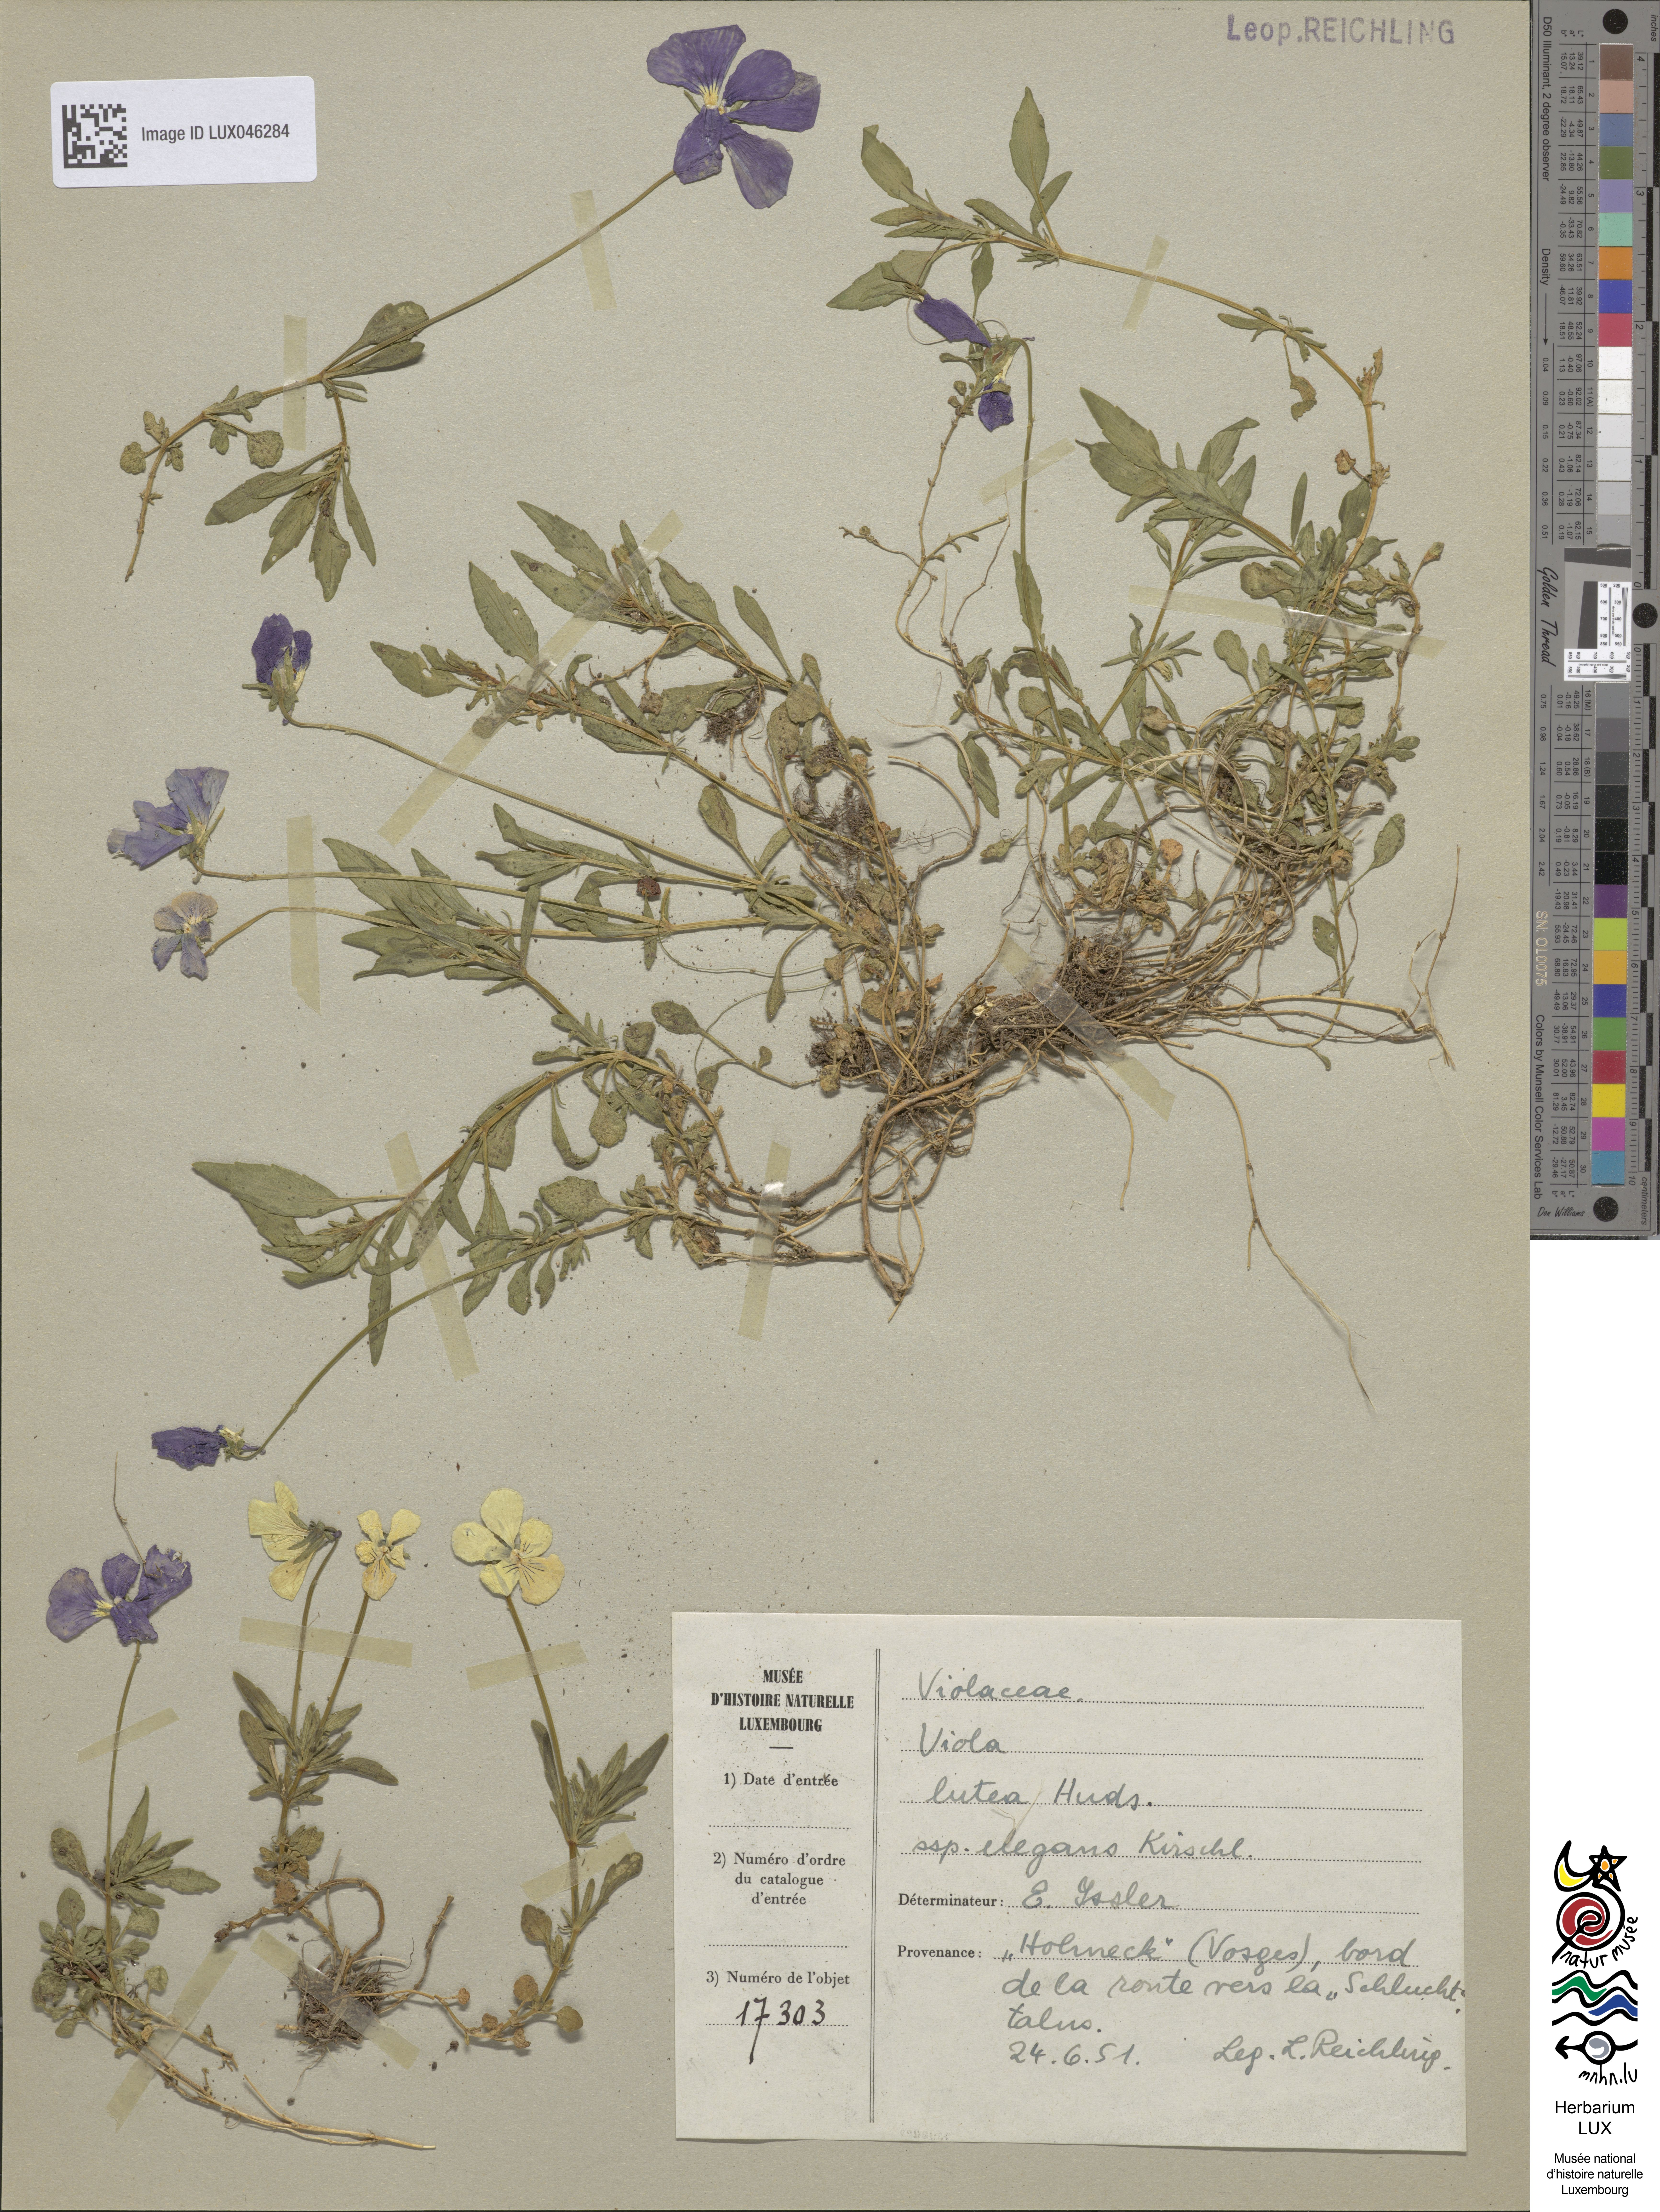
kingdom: Plantae
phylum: Tracheophyta
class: Magnoliopsida
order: Malpighiales
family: Violaceae
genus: Viola
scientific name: Viola lutea
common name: Mountain pansy
